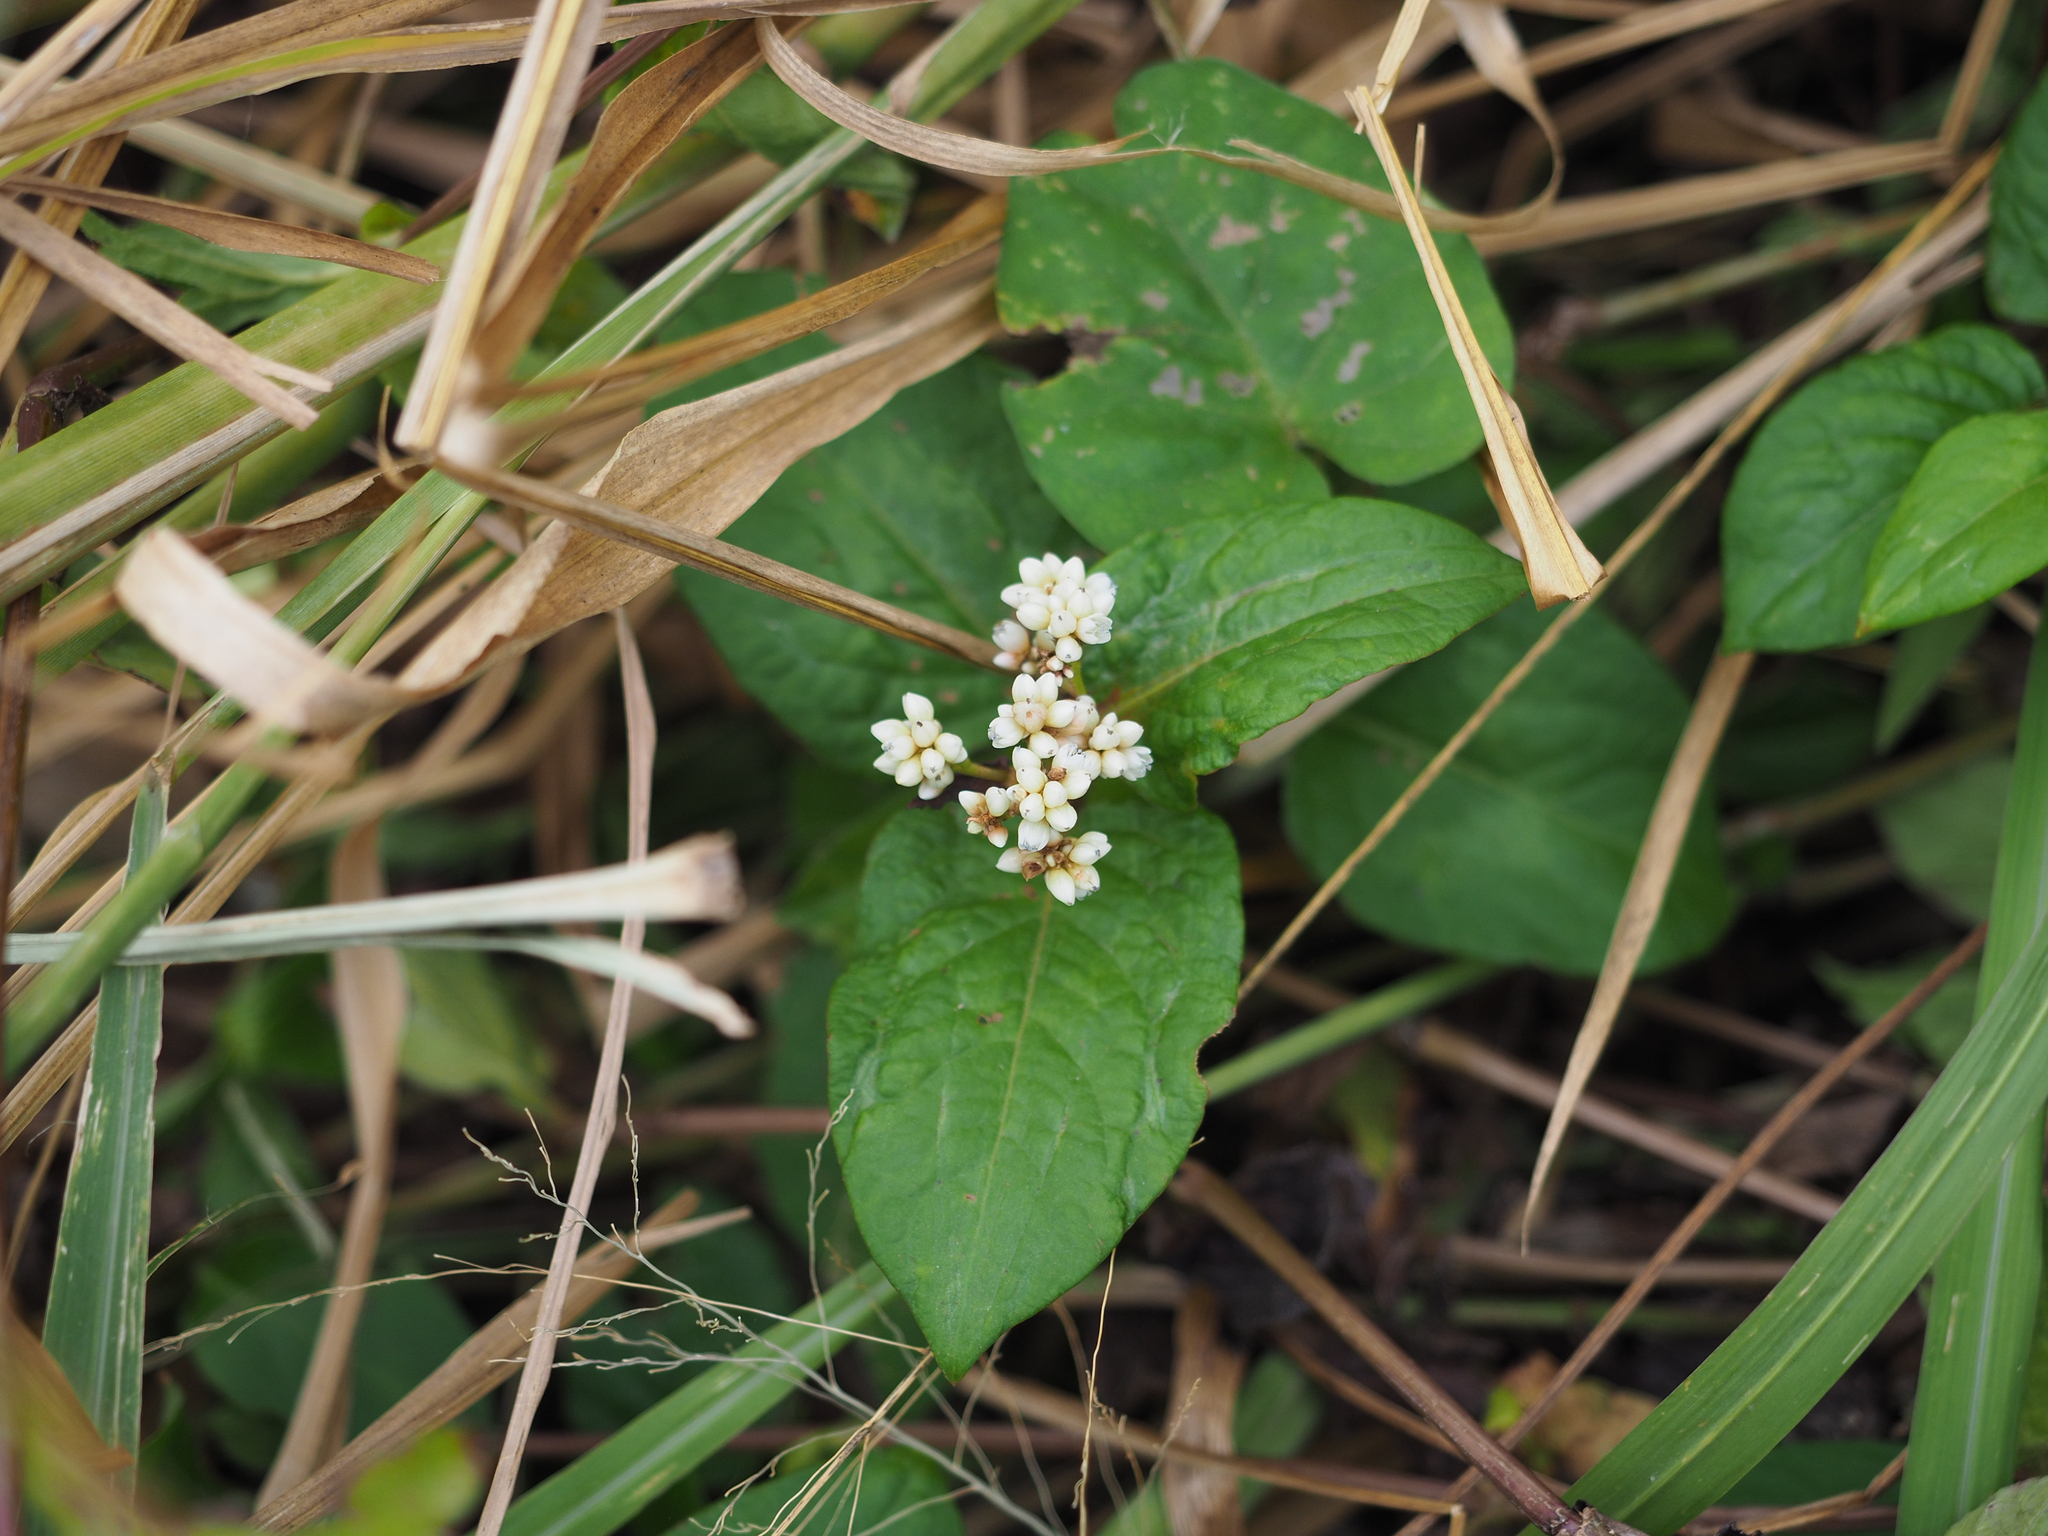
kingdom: Plantae
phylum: Tracheophyta
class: Magnoliopsida
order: Caryophyllales
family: Polygonaceae
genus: Persicaria
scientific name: Persicaria chinensis
